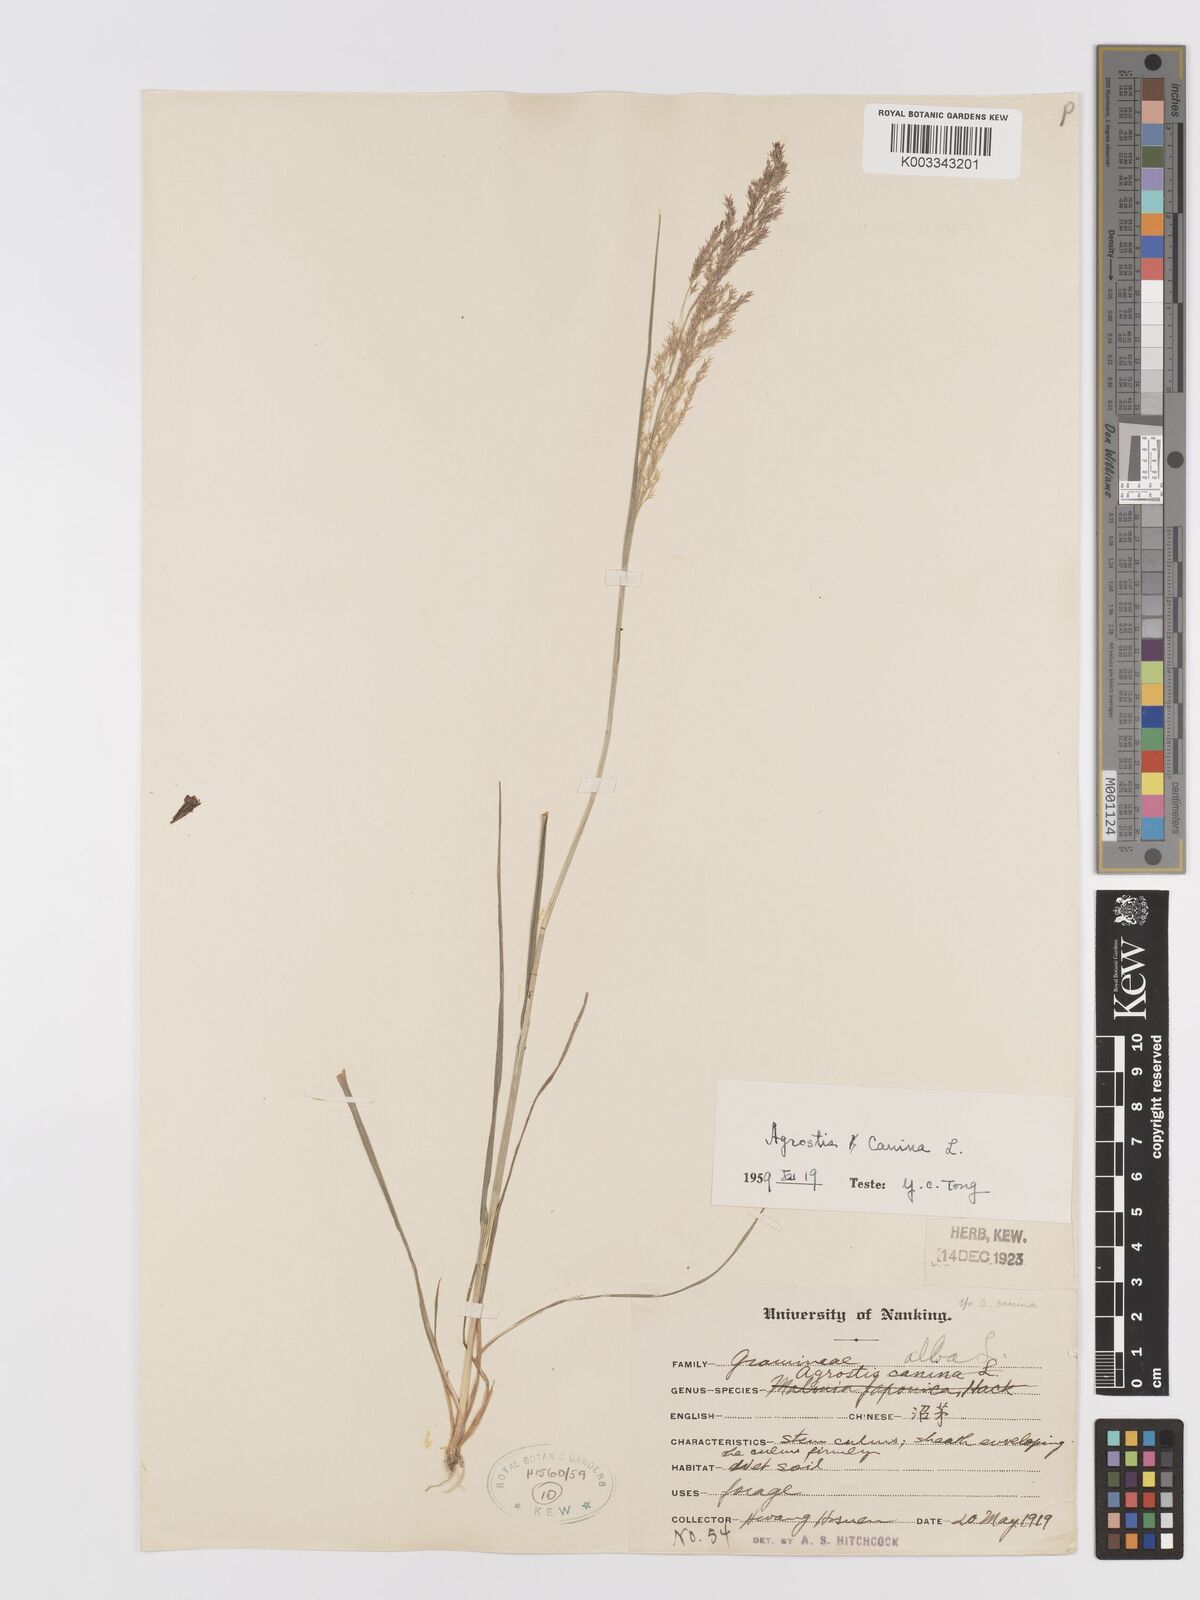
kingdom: Plantae
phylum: Tracheophyta
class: Liliopsida
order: Poales
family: Poaceae
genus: Agrostis
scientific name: Agrostis canina
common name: Velvet bent
